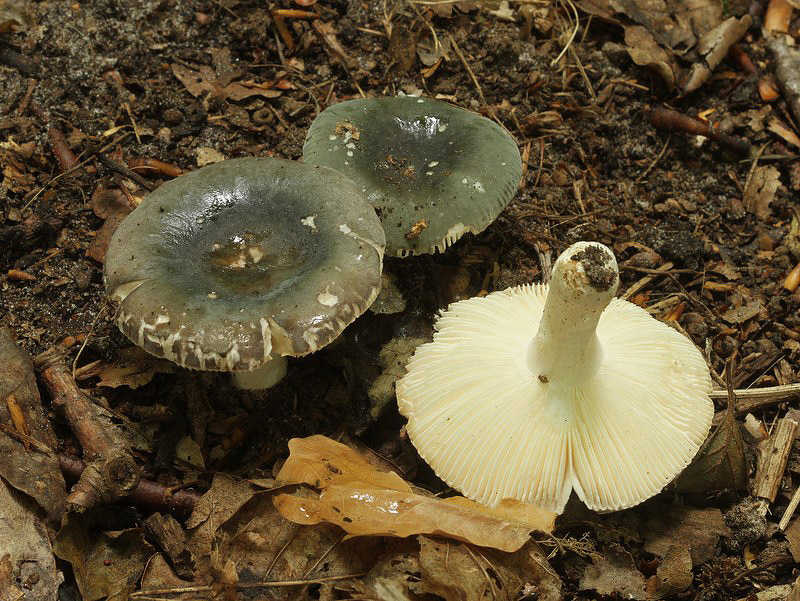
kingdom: Fungi
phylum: Basidiomycota
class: Agaricomycetes
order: Russulales
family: Russulaceae
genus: Russula
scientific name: Russula parazurea
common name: blågrå skørhat
